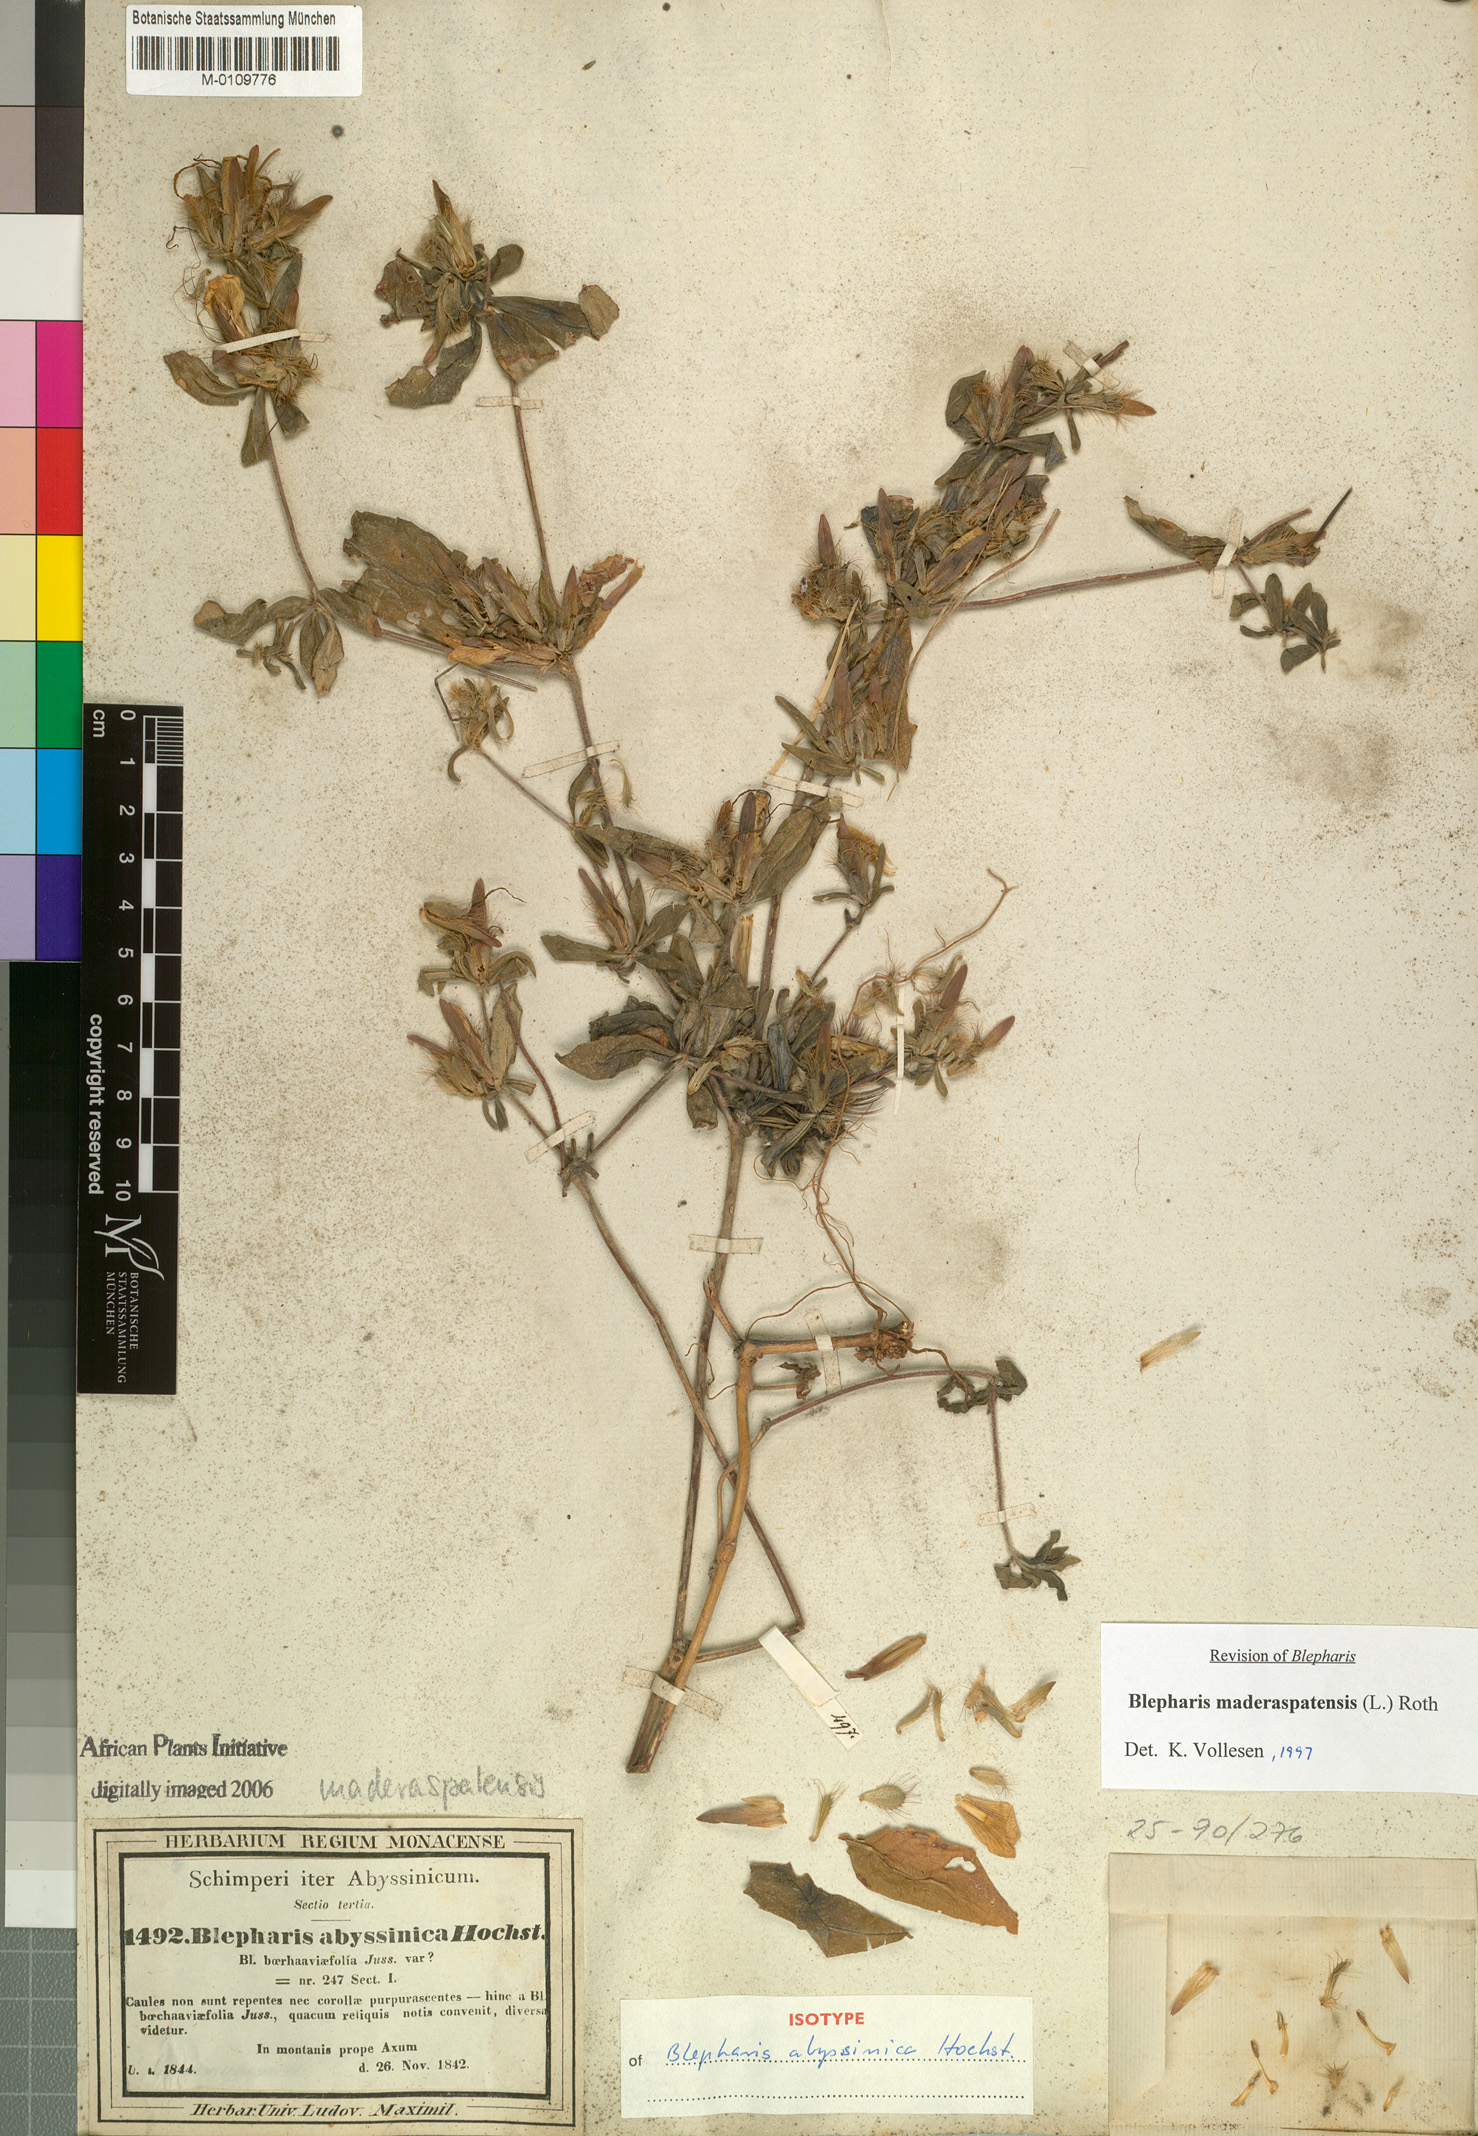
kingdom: Plantae
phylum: Tracheophyta
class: Magnoliopsida
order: Lamiales
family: Acanthaceae
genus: Blepharis
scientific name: Blepharis maderaspatensis
